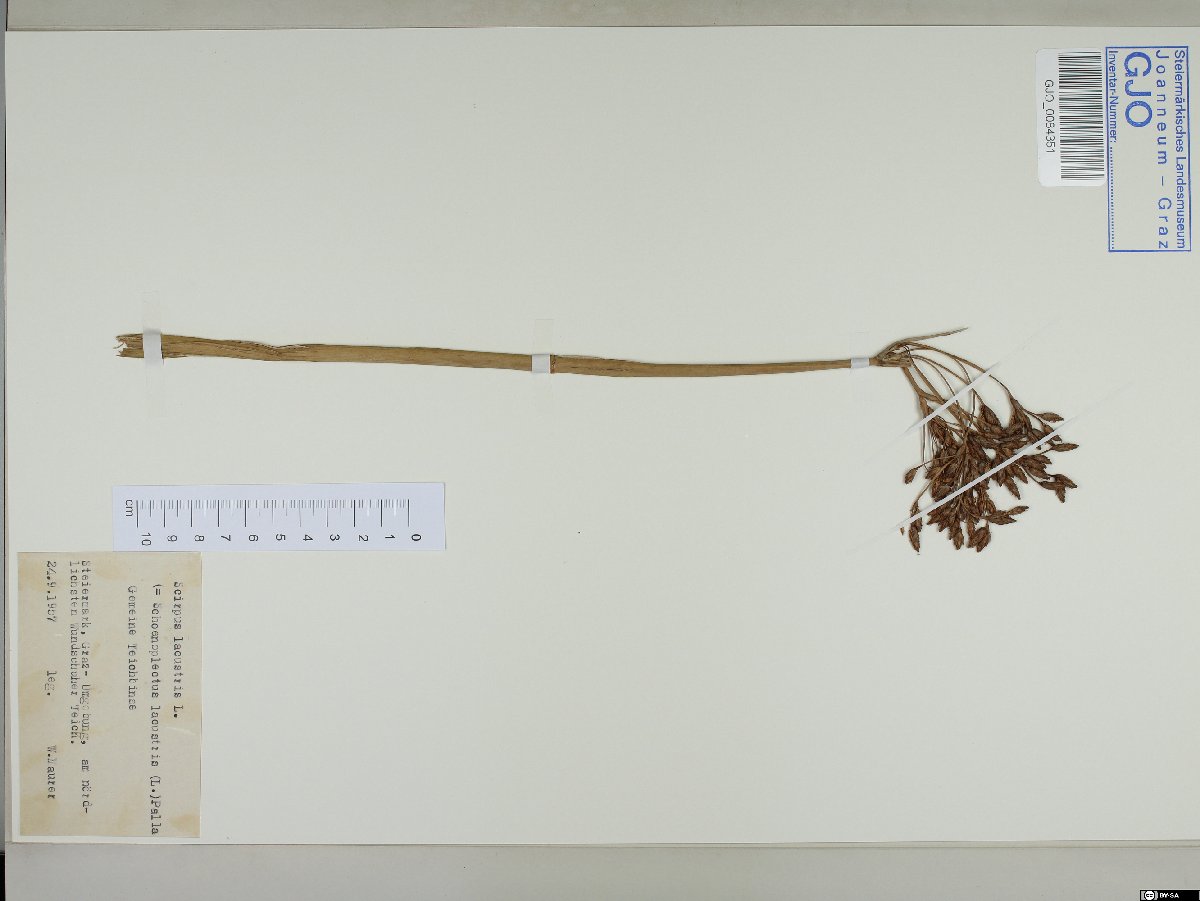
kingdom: Plantae
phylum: Tracheophyta
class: Liliopsida
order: Poales
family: Cyperaceae
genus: Schoenoplectus
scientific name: Schoenoplectus lacustris
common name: Common club-rush
